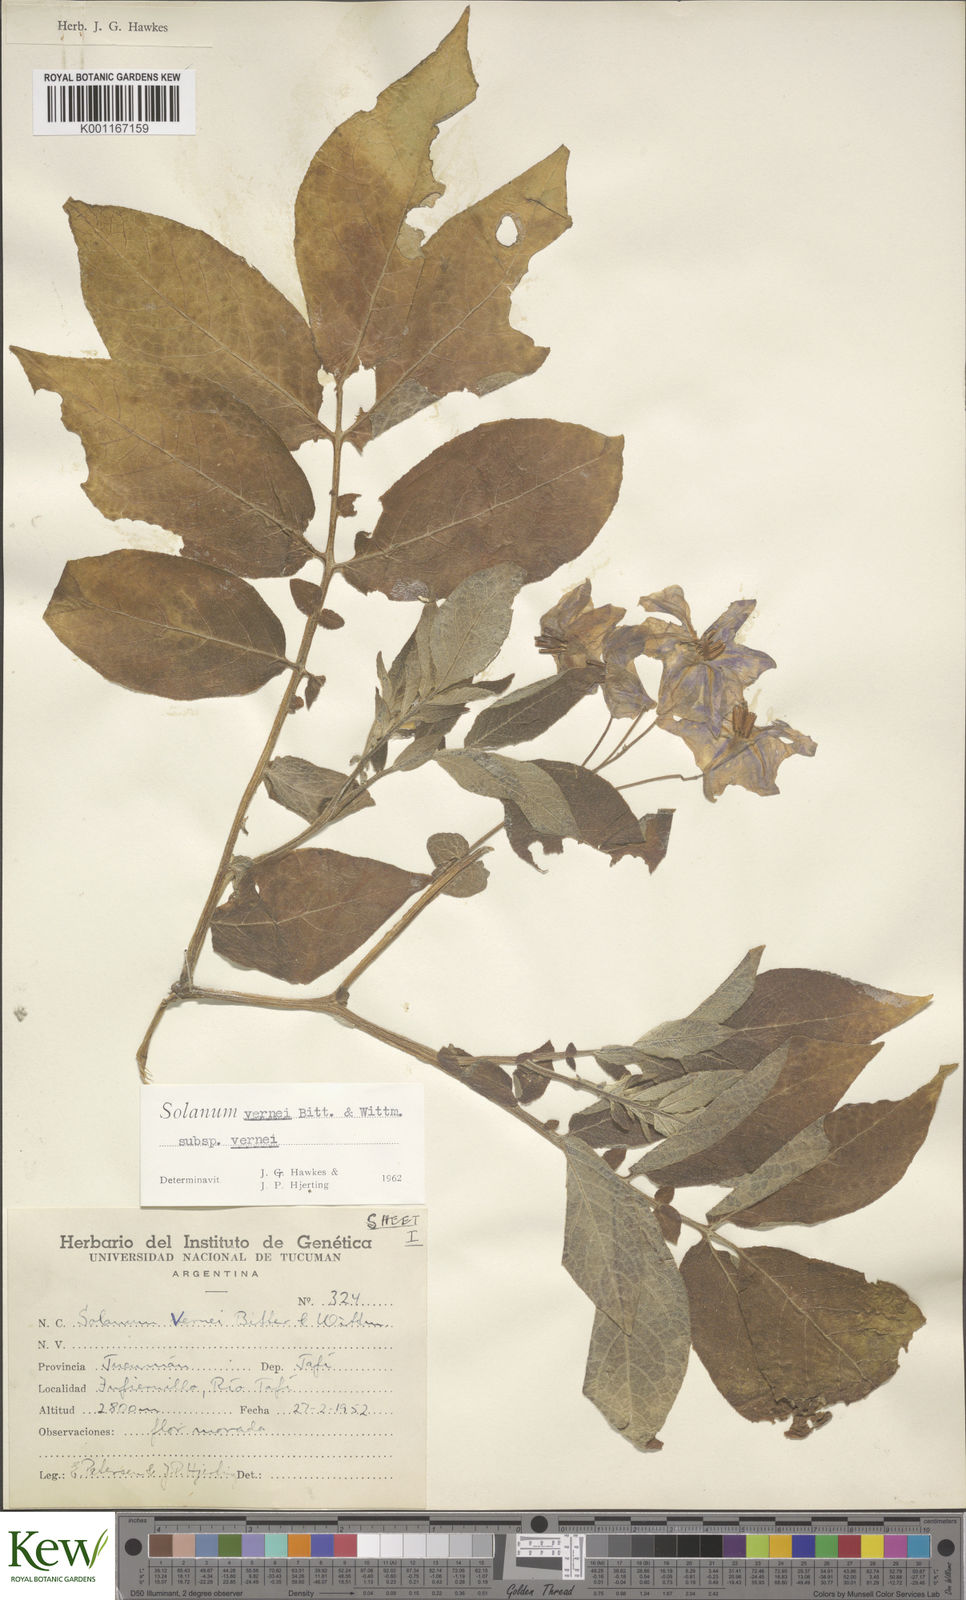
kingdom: Plantae
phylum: Tracheophyta
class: Magnoliopsida
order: Solanales
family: Solanaceae
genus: Solanum
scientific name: Solanum vernei
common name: Purple potato
